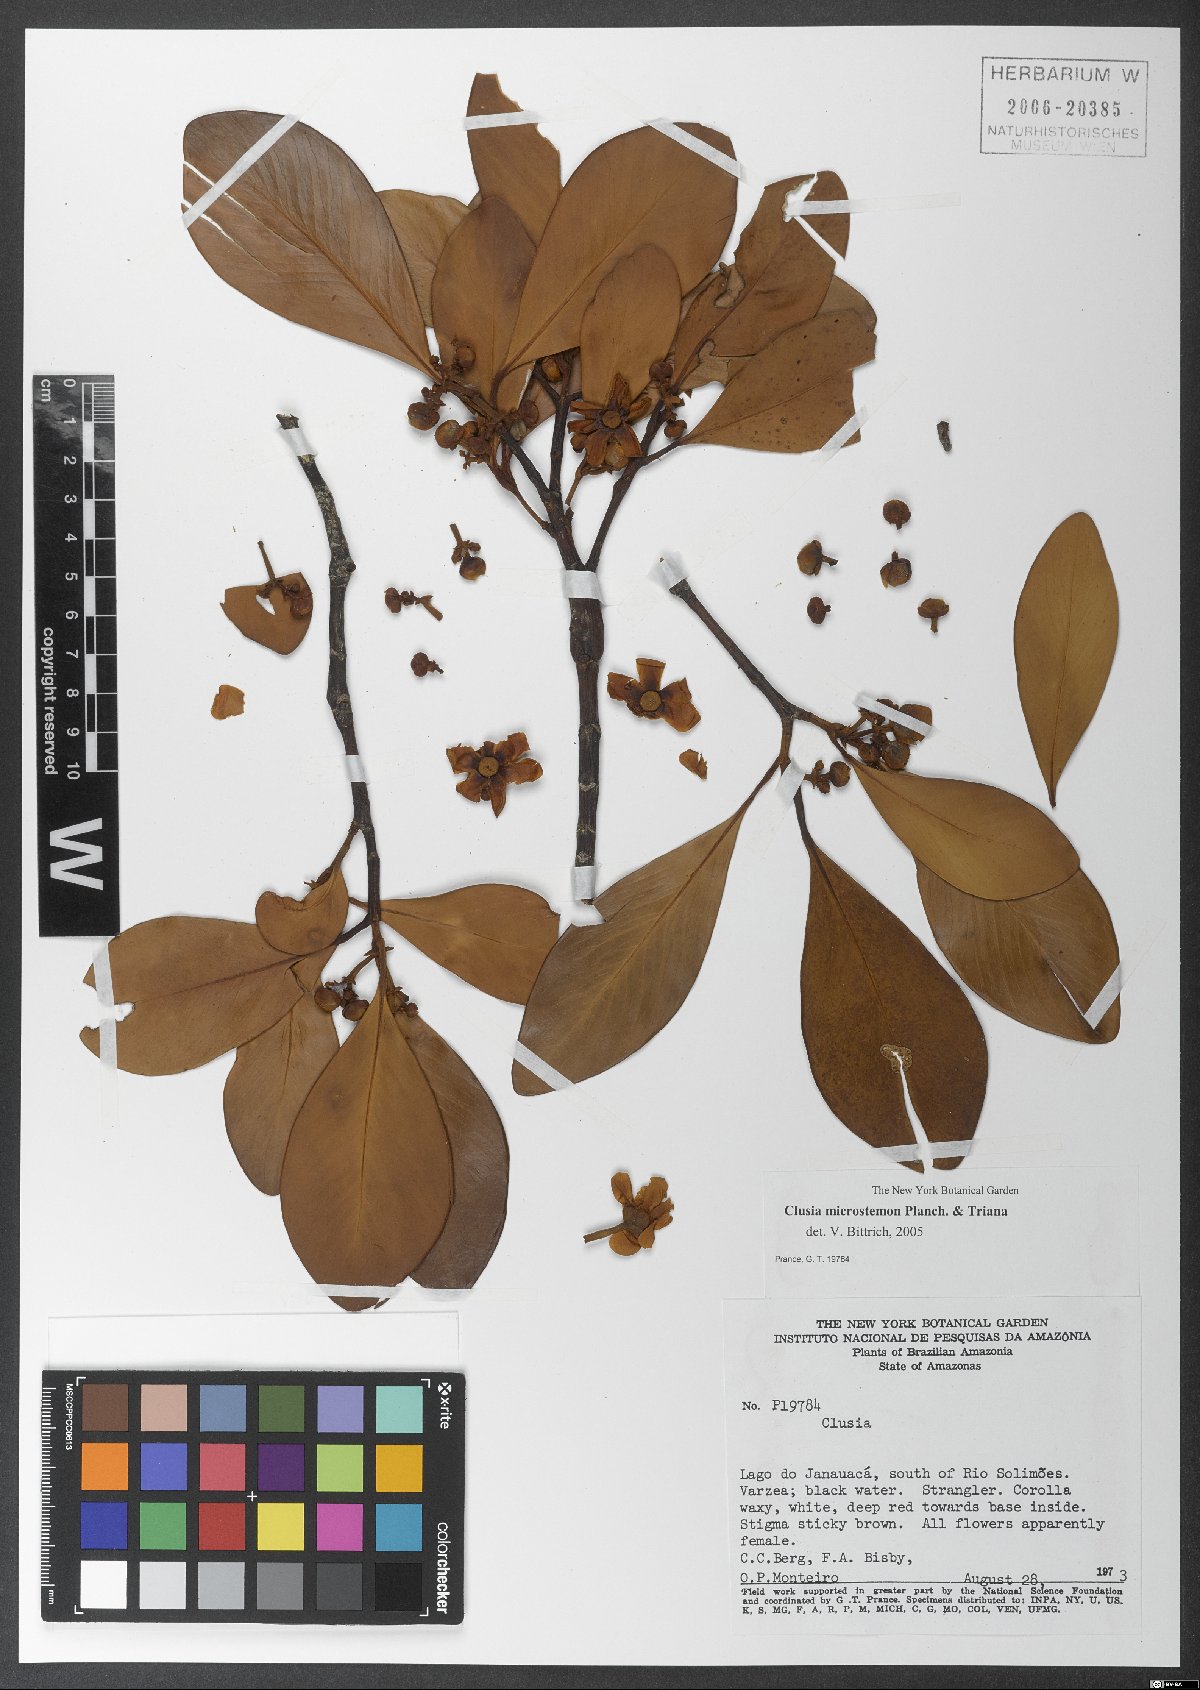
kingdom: Plantae
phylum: Tracheophyta
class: Magnoliopsida
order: Malpighiales
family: Clusiaceae
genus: Clusia
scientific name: Clusia microstemon
